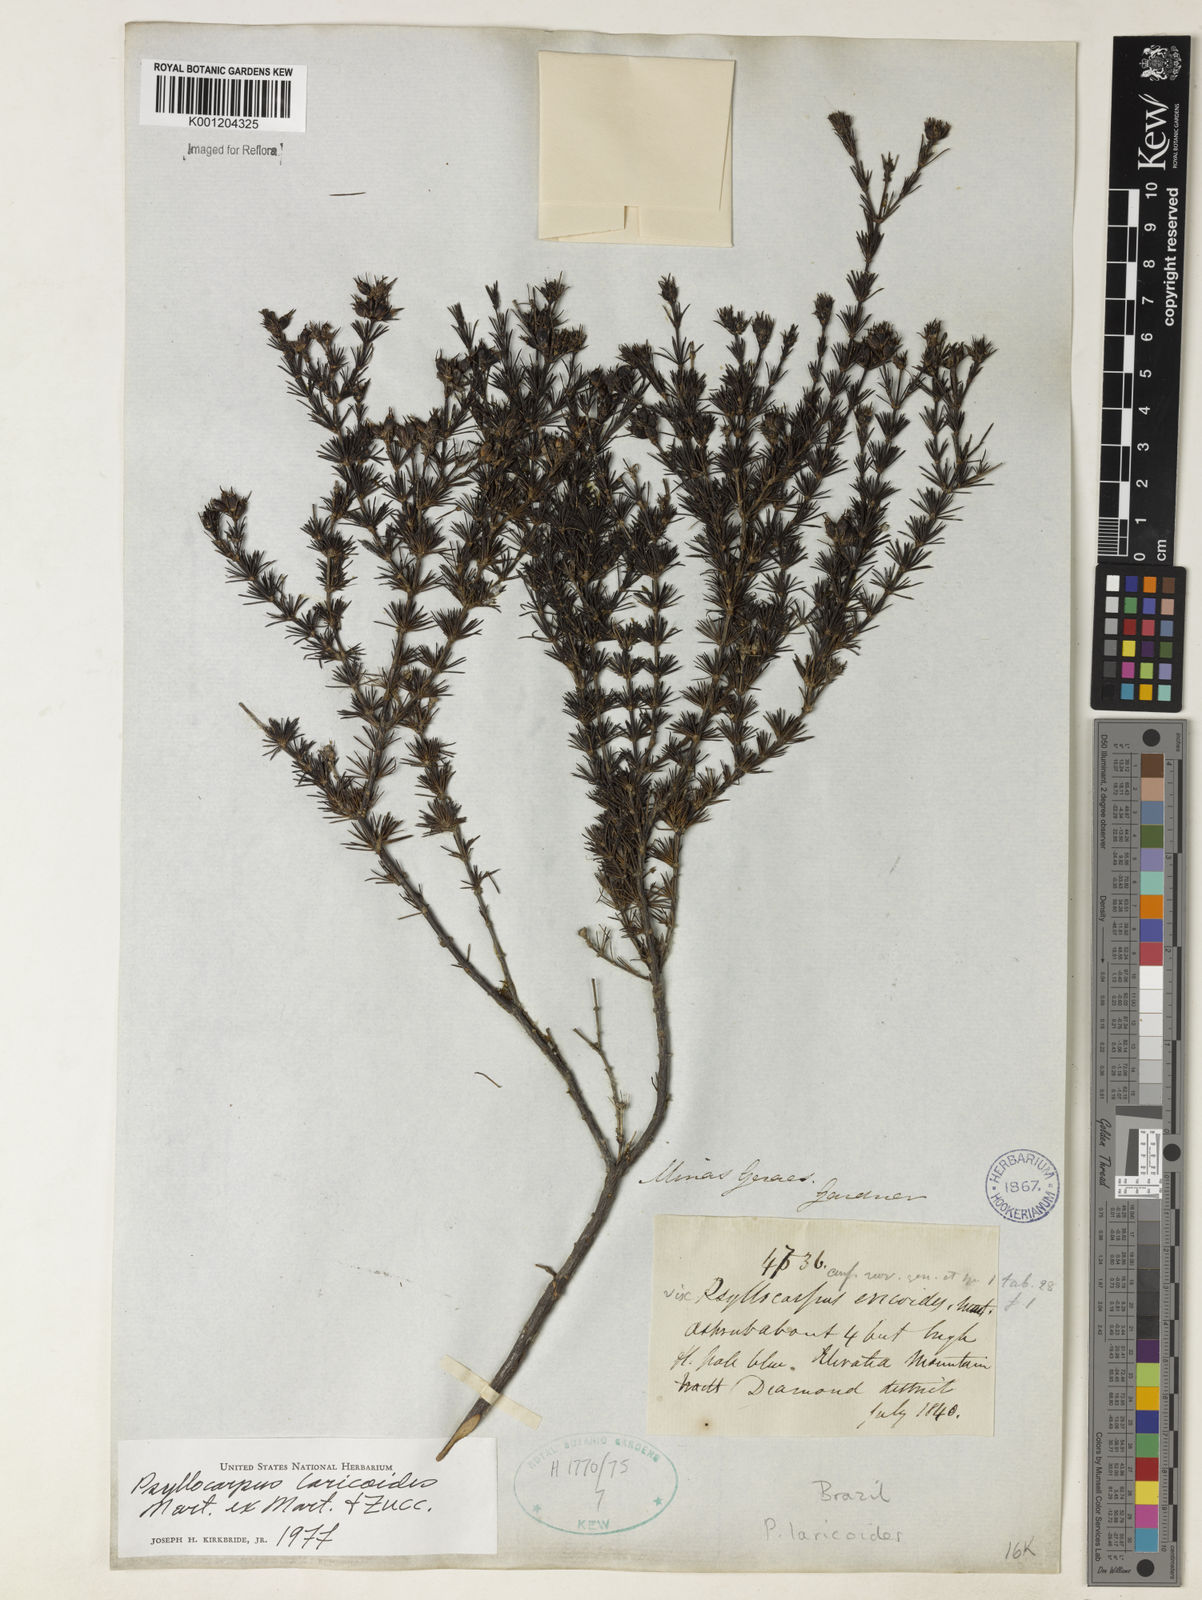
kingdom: Plantae
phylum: Tracheophyta
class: Magnoliopsida
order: Gentianales
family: Rubiaceae
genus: Psyllocarpus
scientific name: Psyllocarpus laricoides
